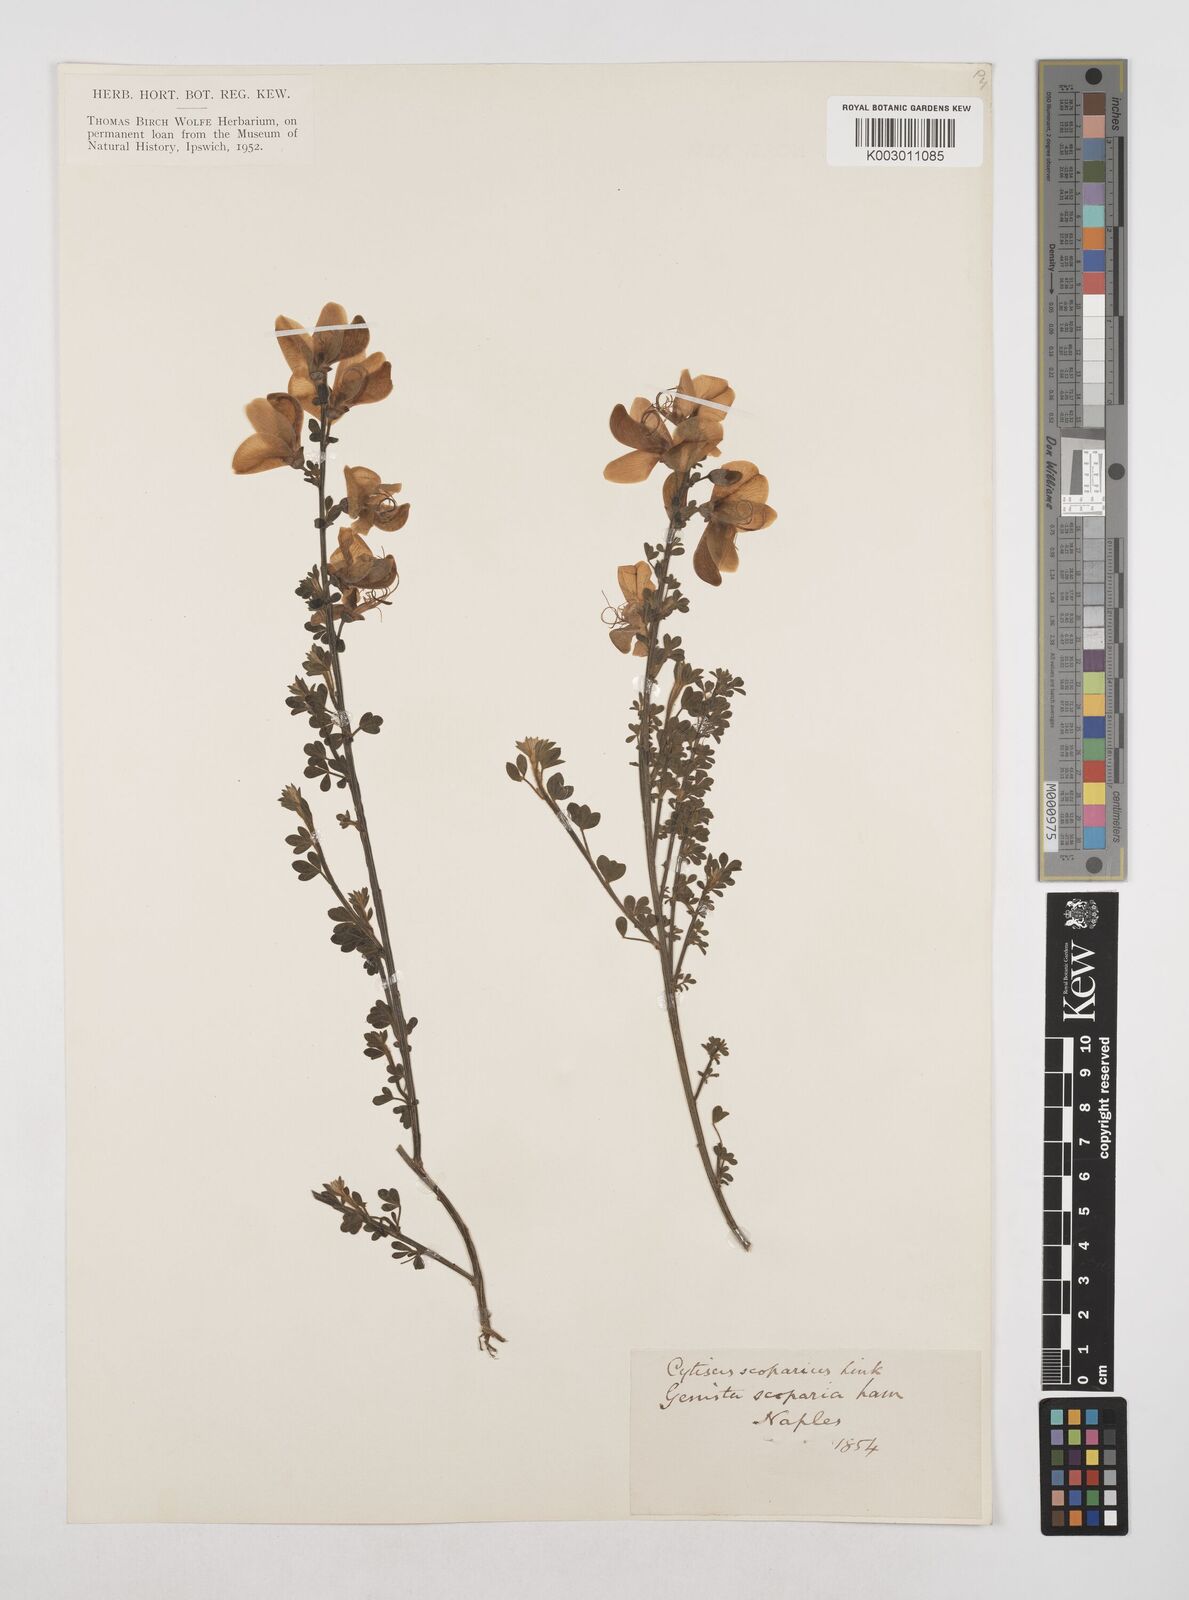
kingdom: Plantae
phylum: Tracheophyta
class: Magnoliopsida
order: Fabales
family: Fabaceae
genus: Cytisus
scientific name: Cytisus scoparius
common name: Scotch broom
